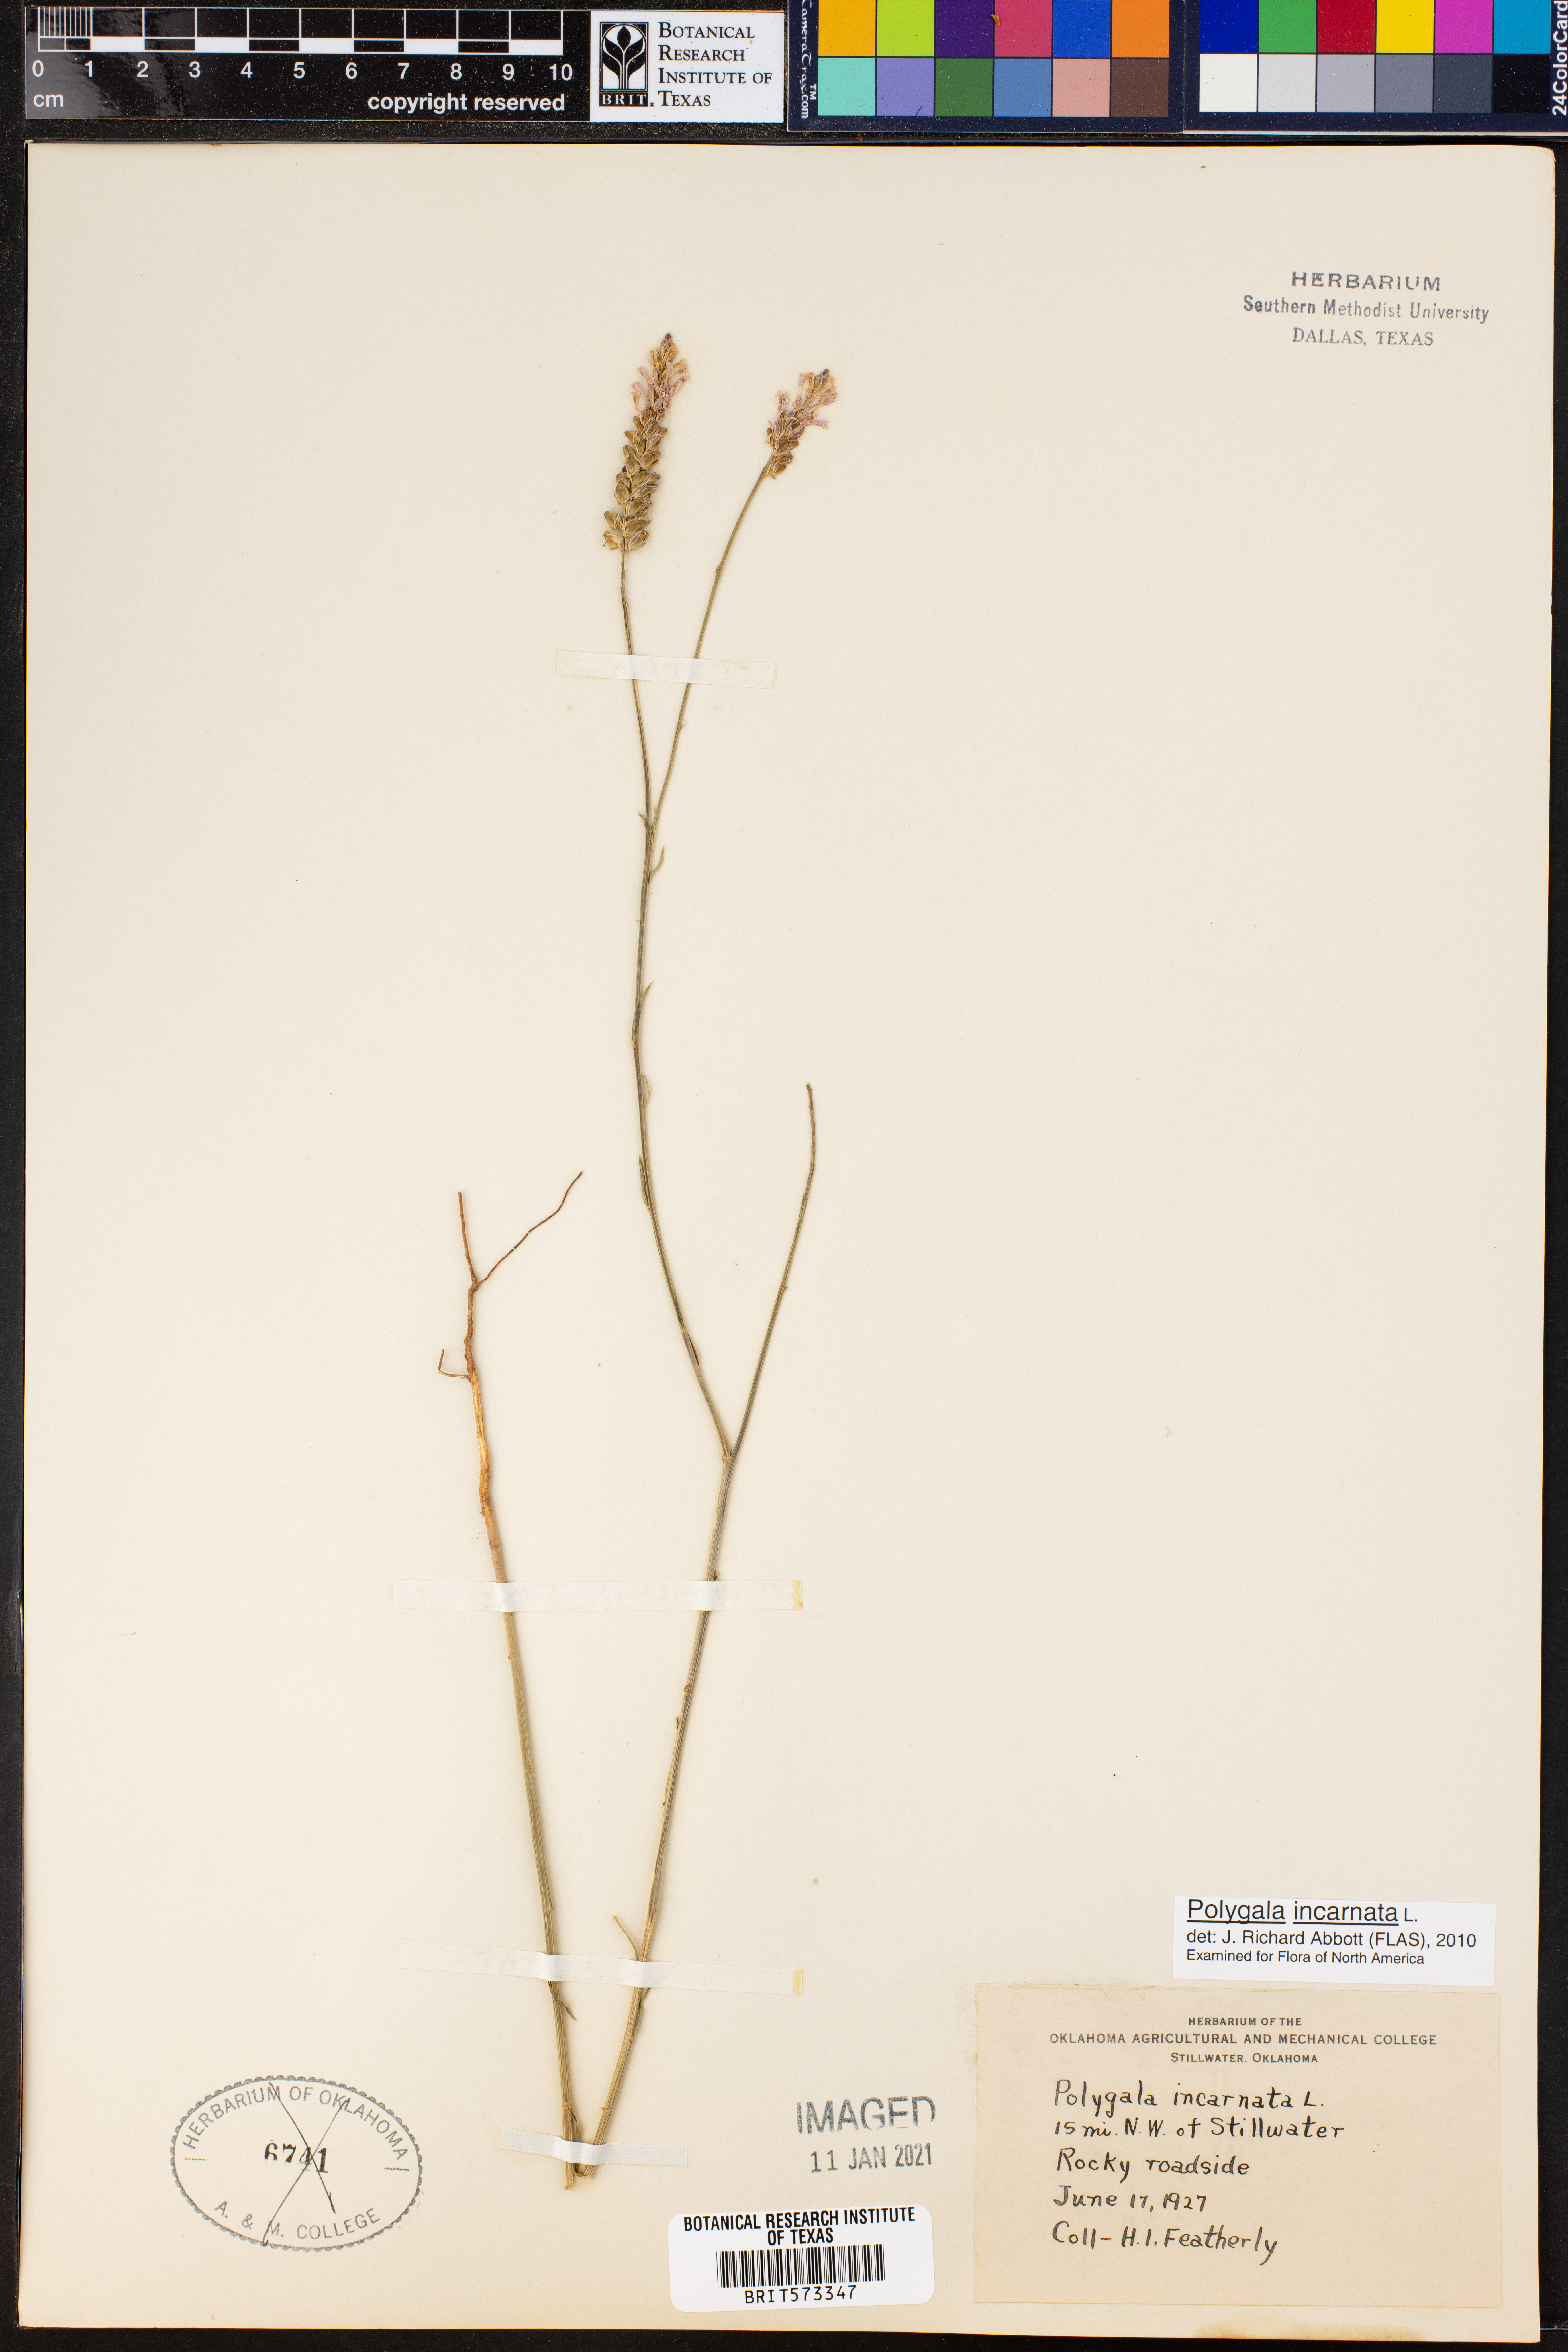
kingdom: Plantae
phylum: Tracheophyta
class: Magnoliopsida
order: Fabales
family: Polygalaceae
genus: Polygala
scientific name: Polygala incarnata
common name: Pink milkwort
